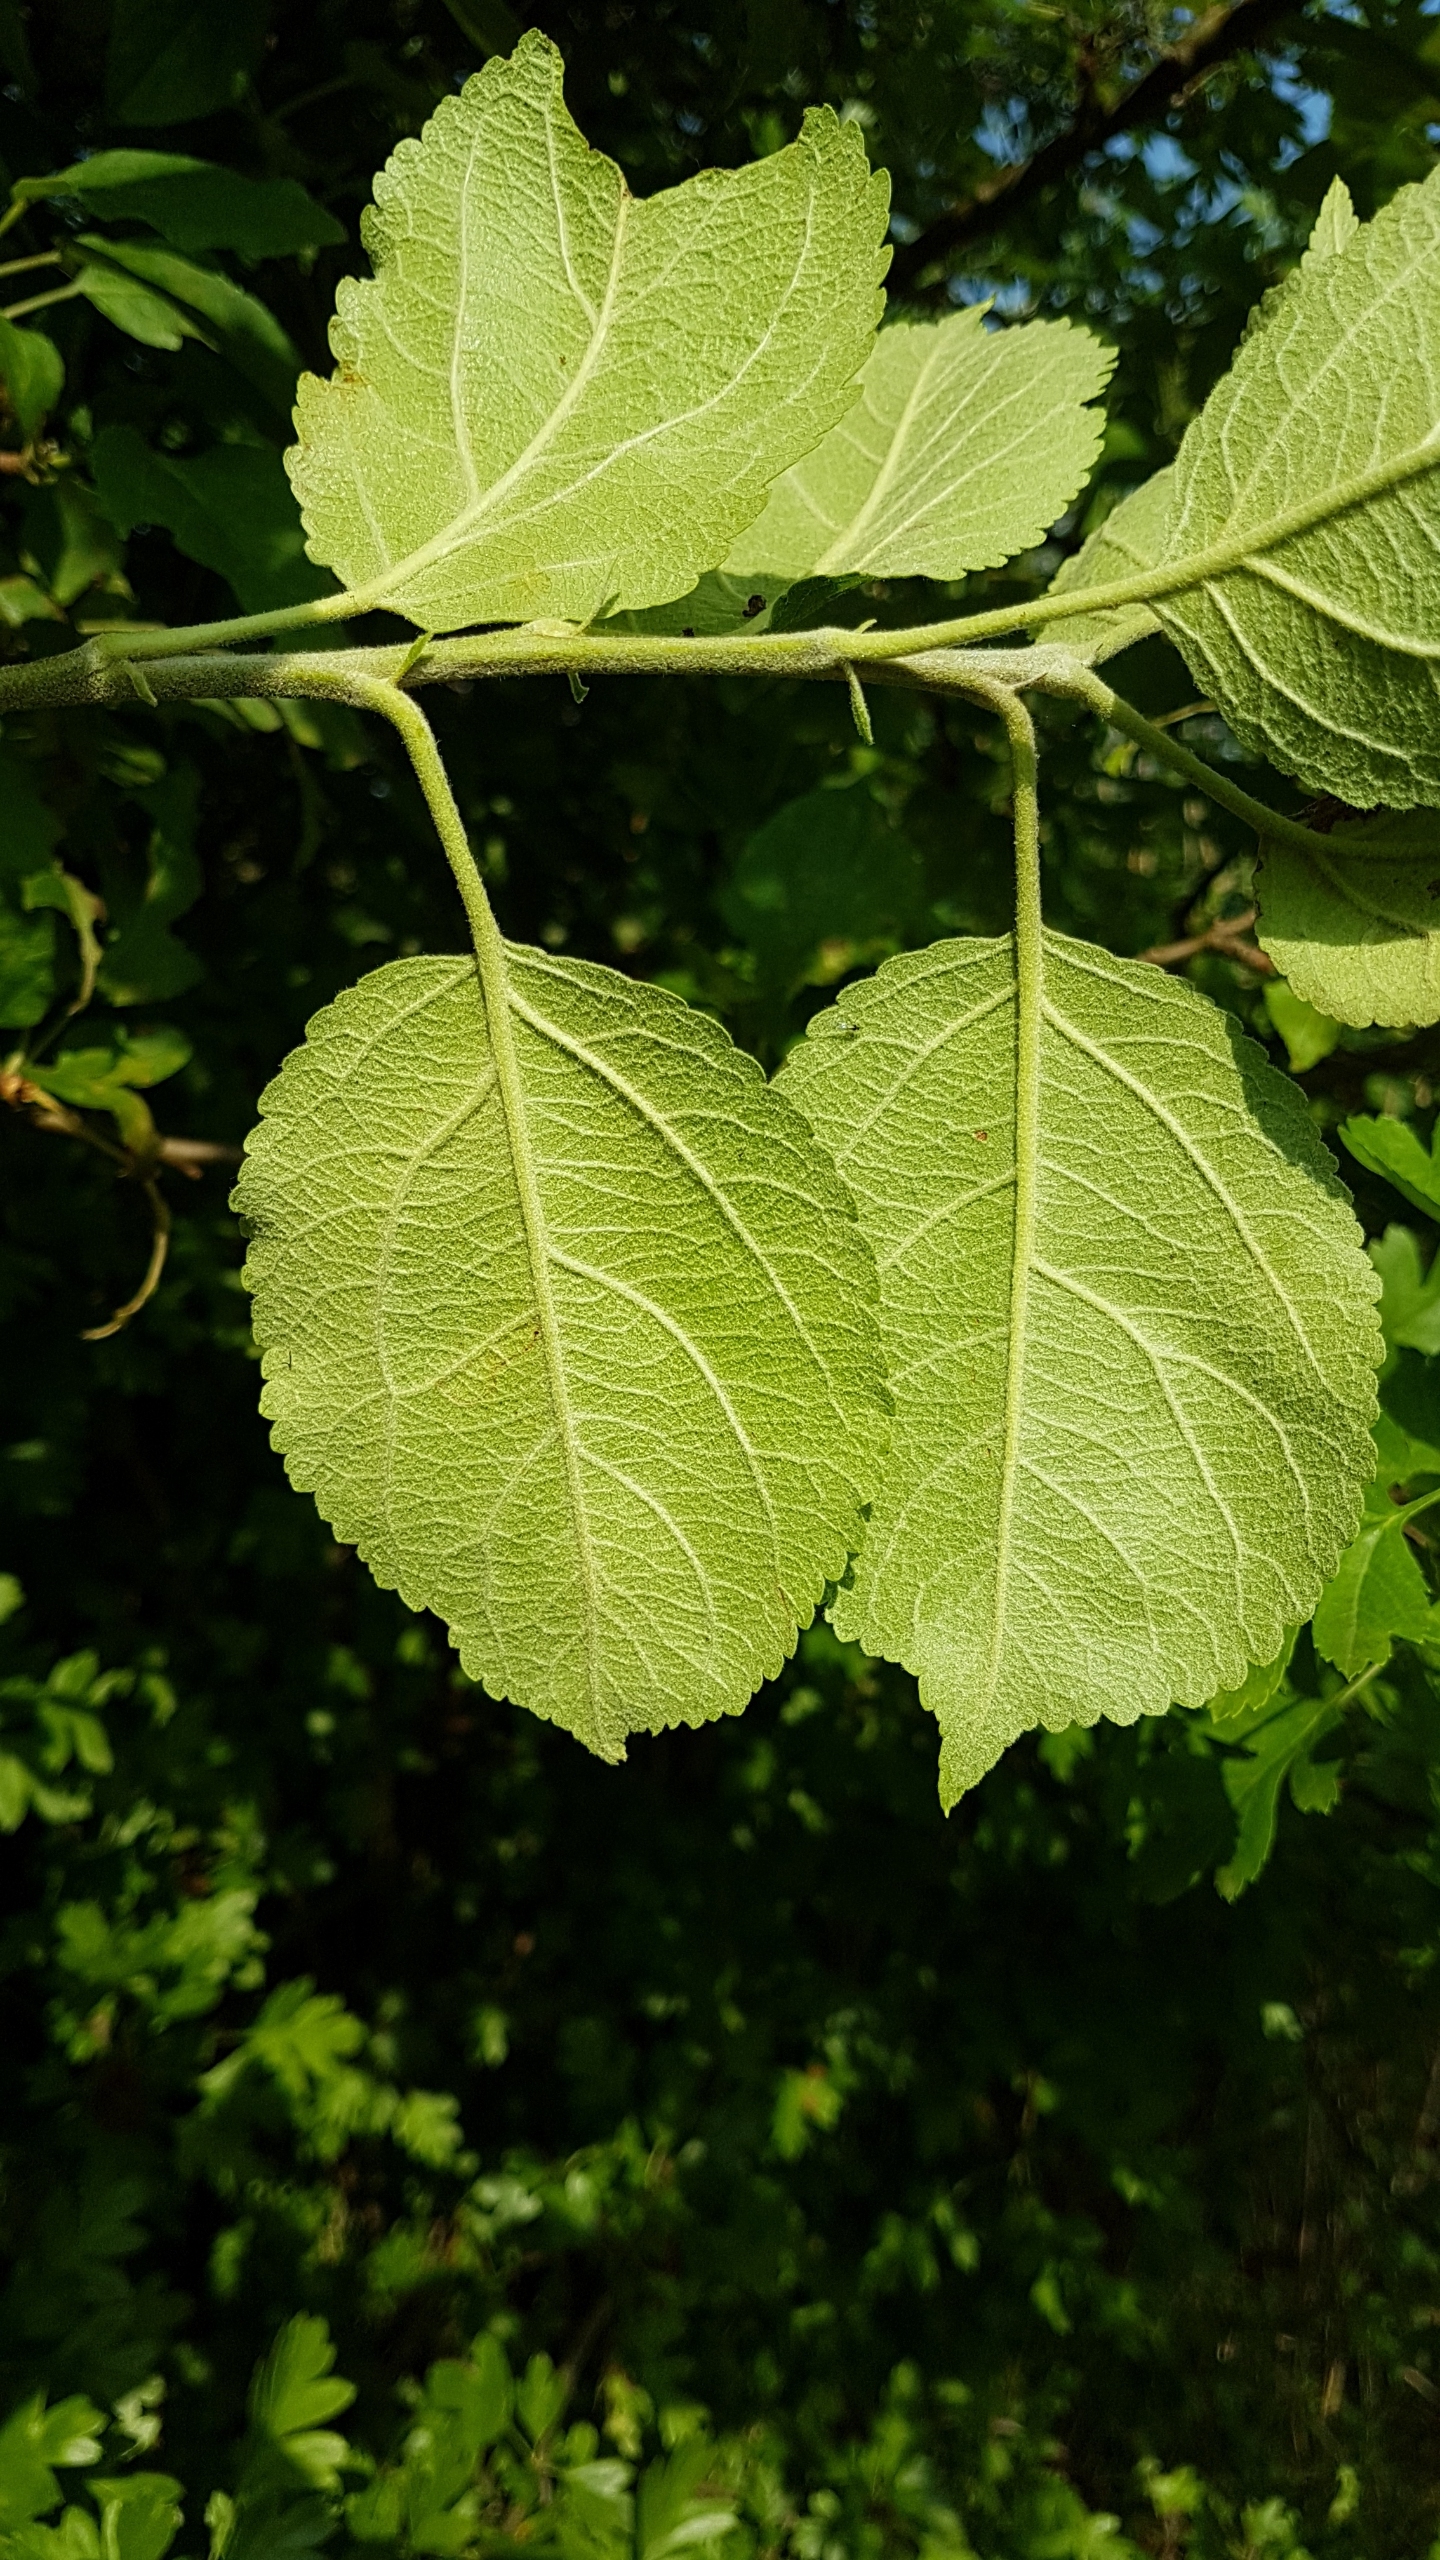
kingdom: Plantae
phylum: Tracheophyta
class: Magnoliopsida
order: Rosales
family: Rosaceae
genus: Malus
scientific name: Malus domestica
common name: Sød-æble
